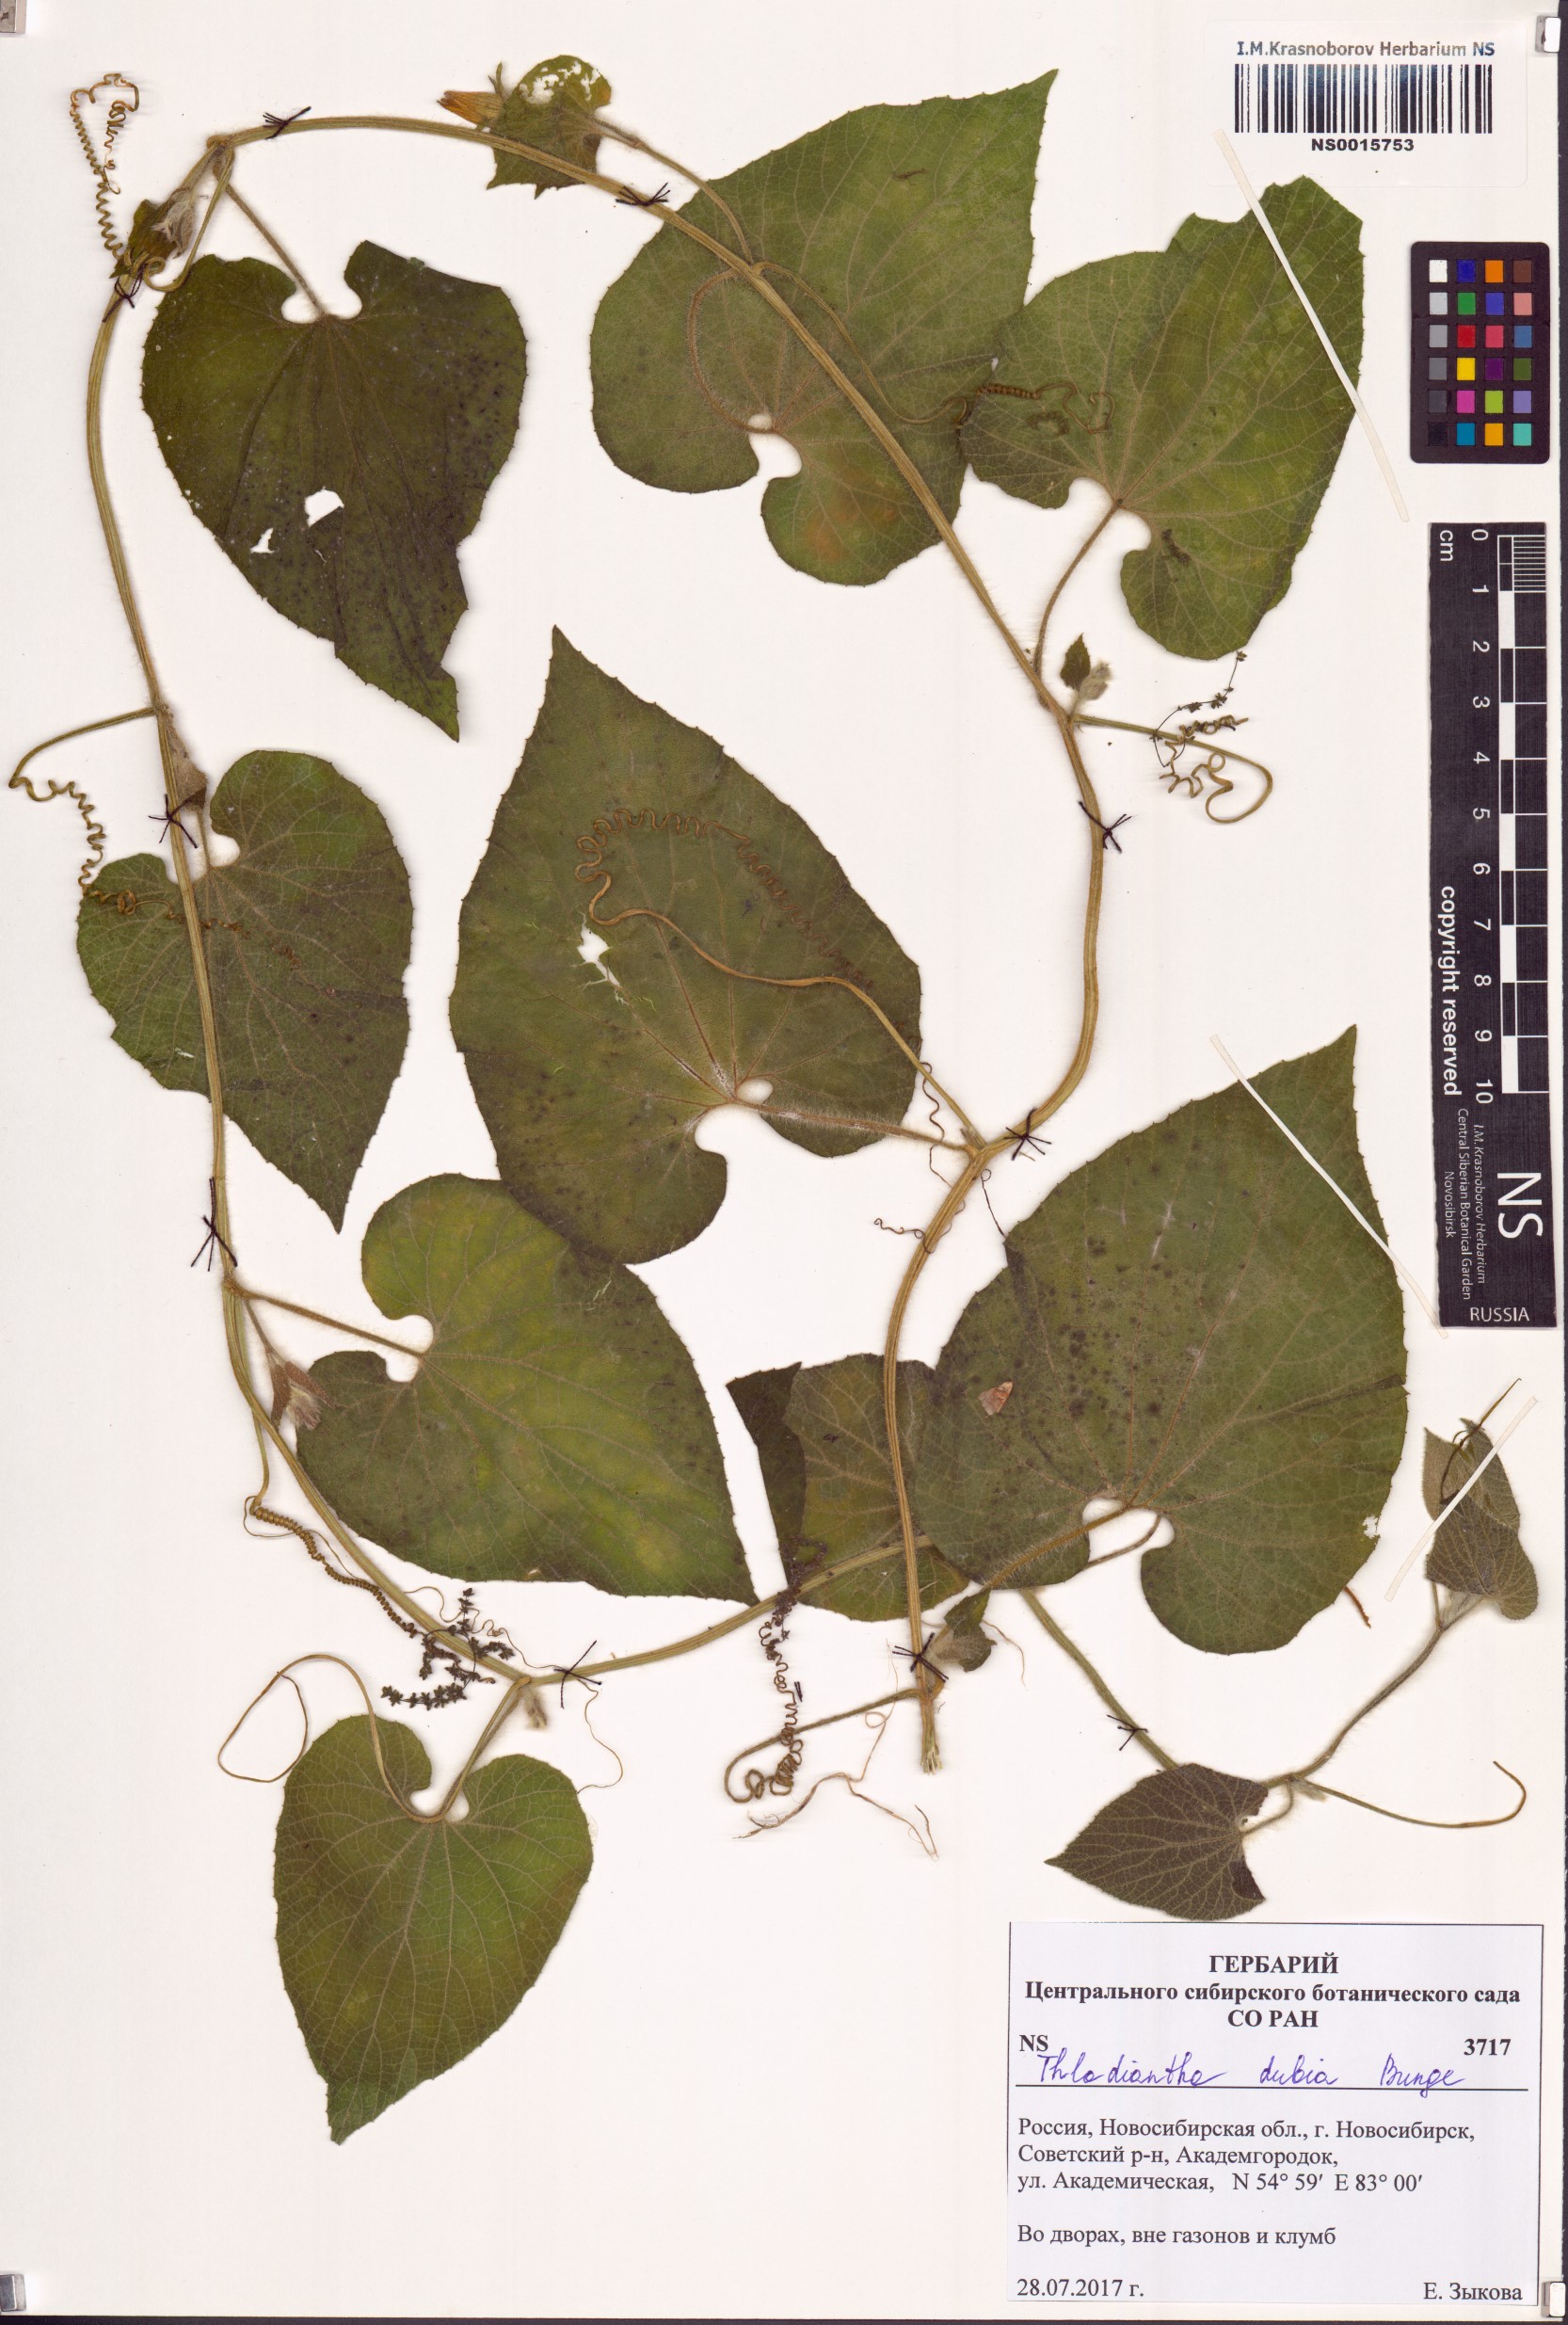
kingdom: Plantae
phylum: Tracheophyta
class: Magnoliopsida
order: Cucurbitales
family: Cucurbitaceae
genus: Thladiantha
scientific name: Thladiantha dubia
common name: Manchu tubergourd
